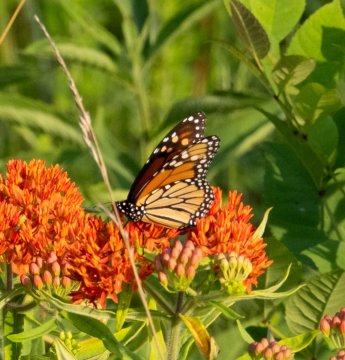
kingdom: Animalia
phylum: Arthropoda
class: Insecta
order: Lepidoptera
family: Nymphalidae
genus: Danaus
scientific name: Danaus plexippus
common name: Monarch
